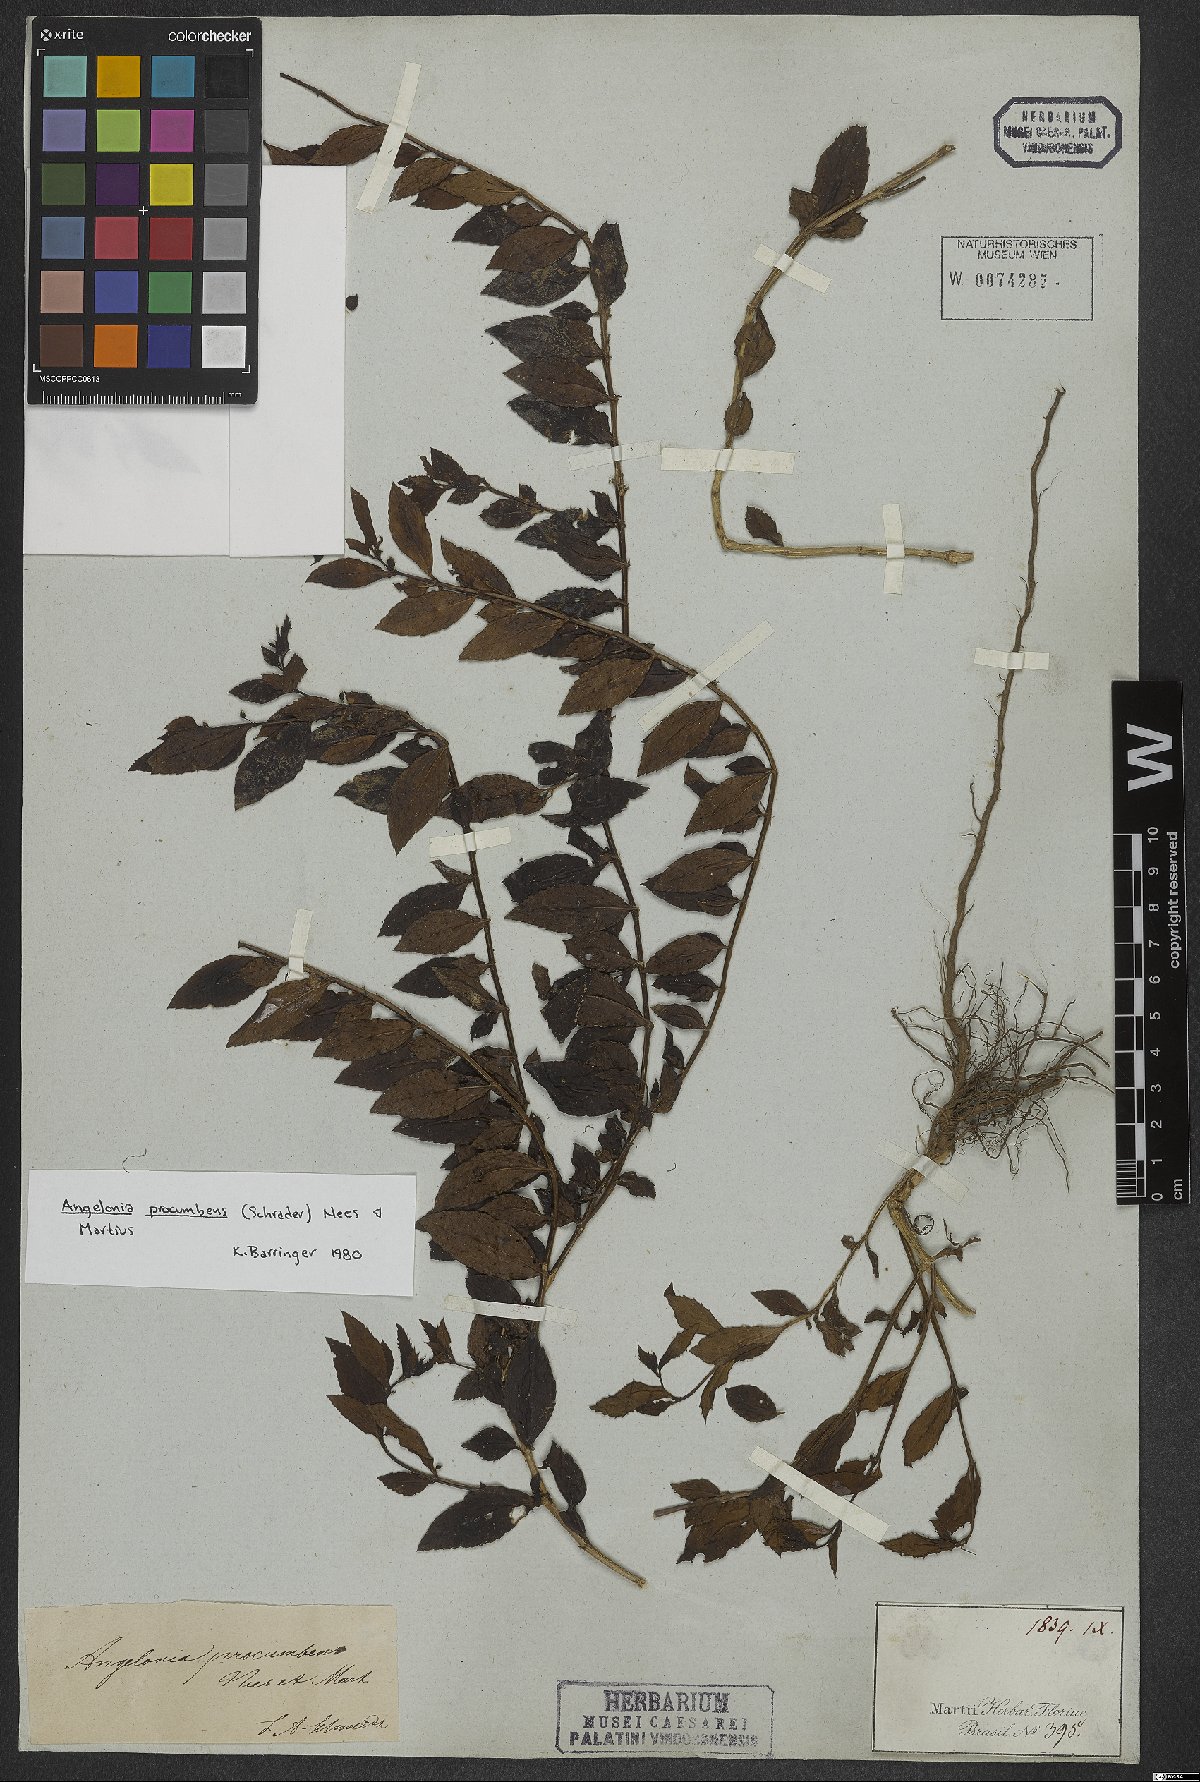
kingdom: Plantae
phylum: Tracheophyta
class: Magnoliopsida
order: Lamiales
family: Plantaginaceae
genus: Angelonia
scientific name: Angelonia procumbens
